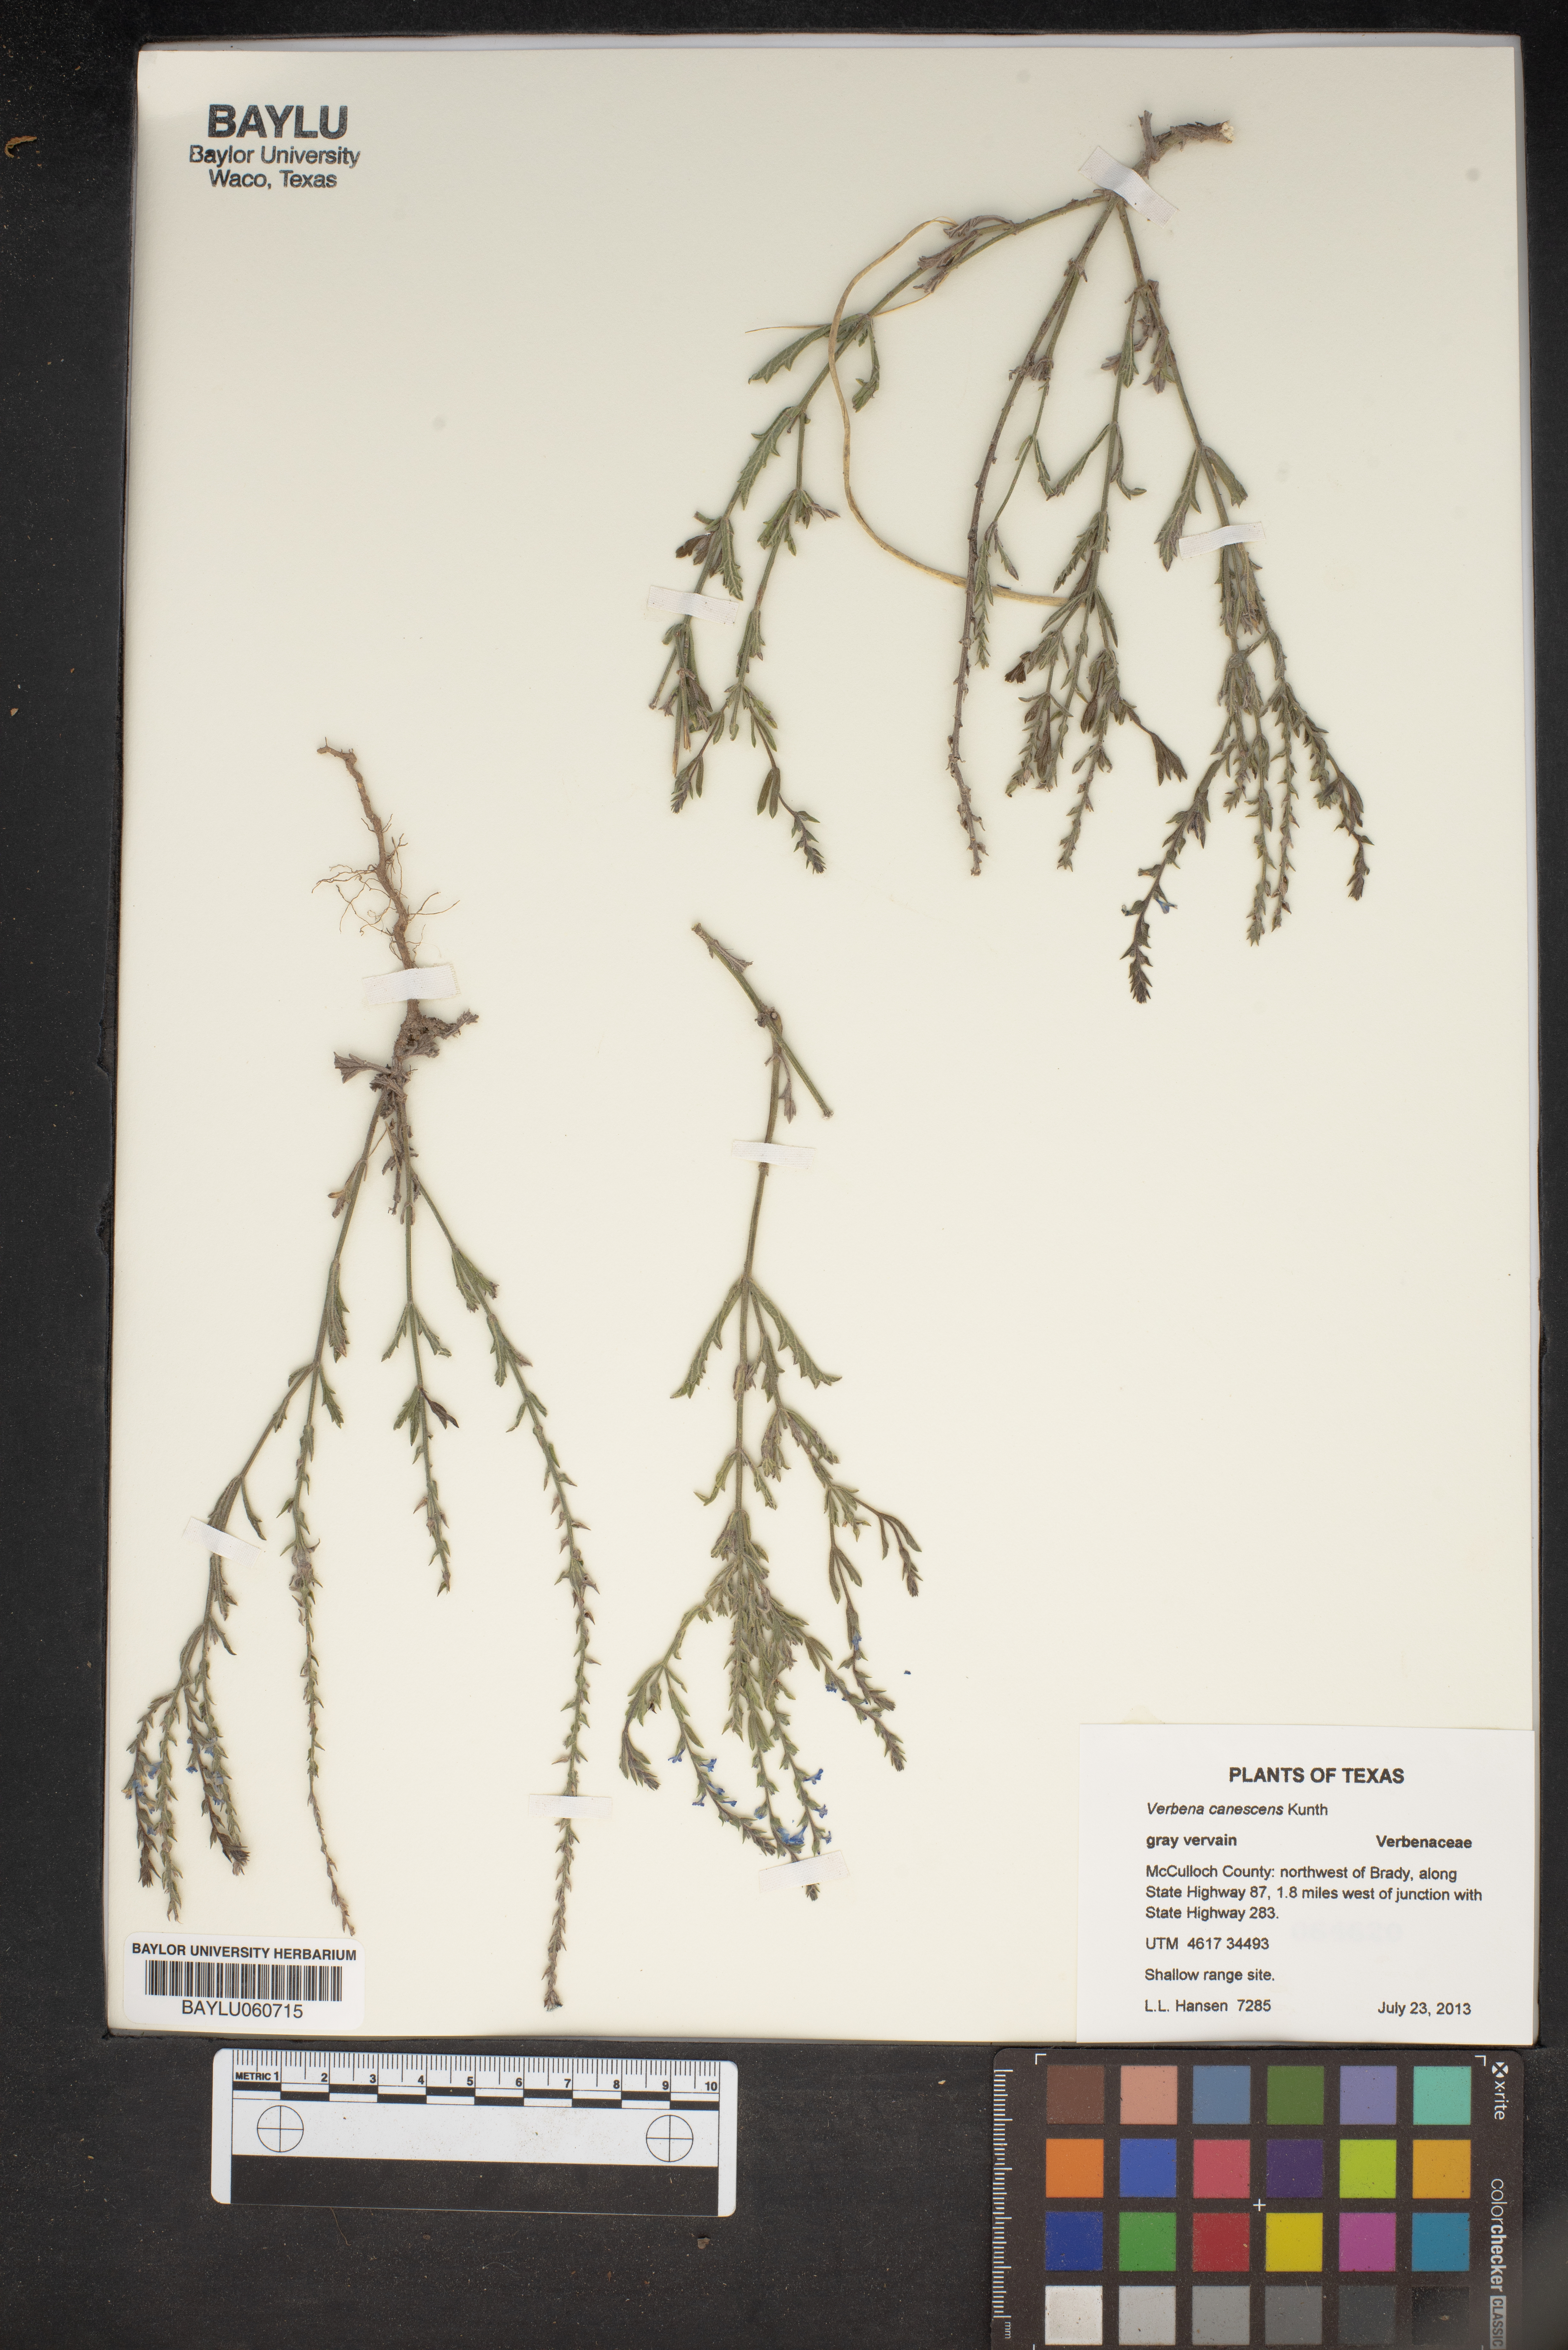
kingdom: Plantae
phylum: Tracheophyta
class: Magnoliopsida
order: Lamiales
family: Verbenaceae
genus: Verbena
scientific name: Verbena canescens
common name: Gray vervain
